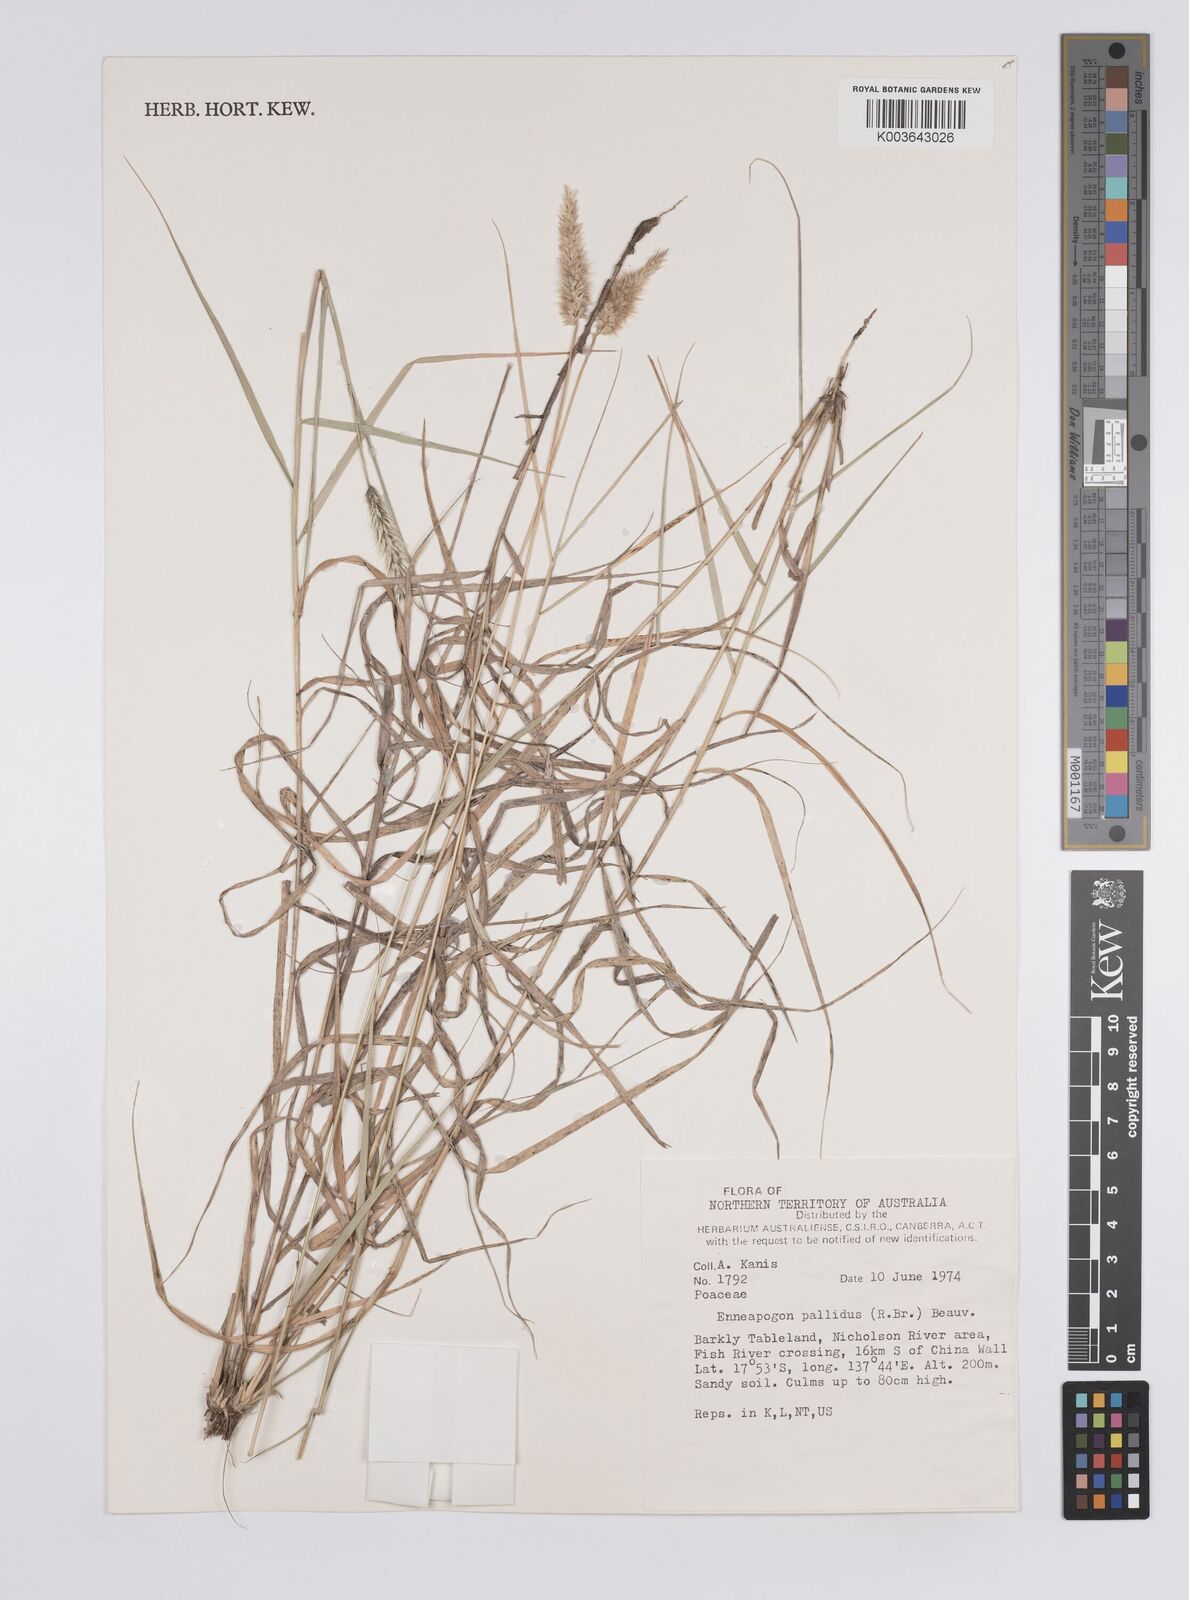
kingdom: Plantae
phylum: Tracheophyta
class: Liliopsida
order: Poales
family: Poaceae
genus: Enneapogon
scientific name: Enneapogon pallidus
